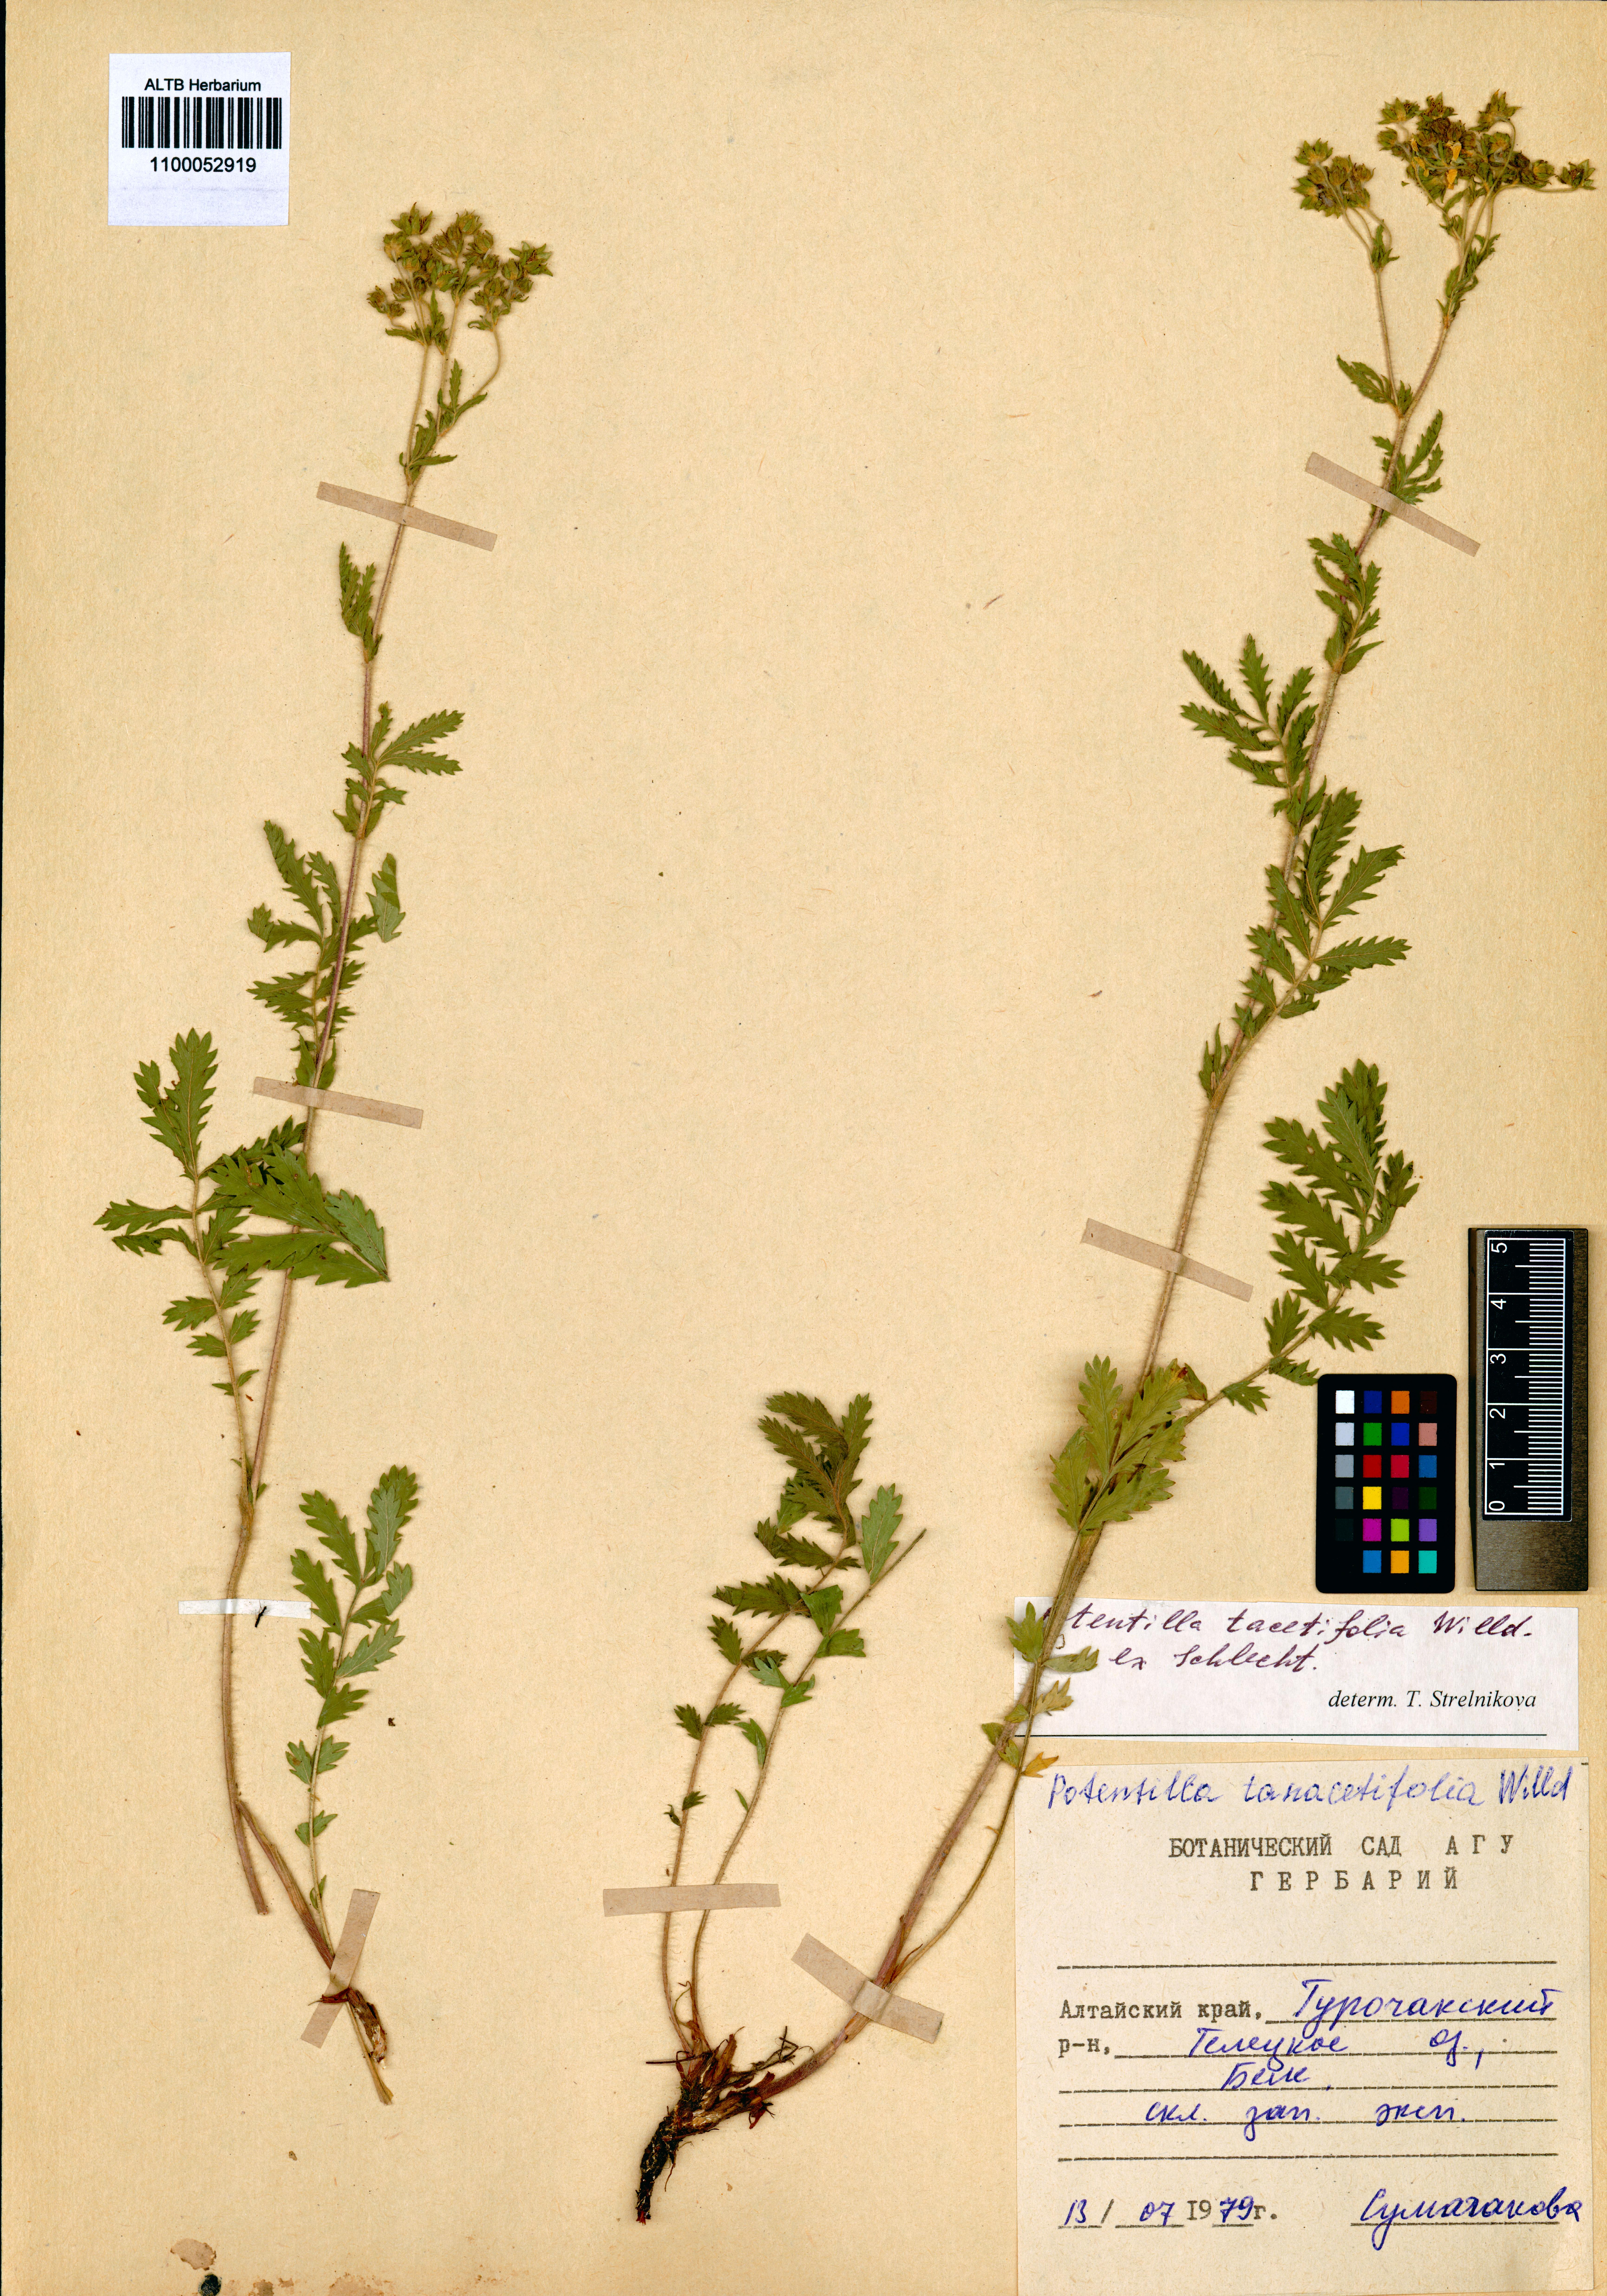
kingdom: Plantae
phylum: Tracheophyta
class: Magnoliopsida
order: Rosales
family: Rosaceae
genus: Potentilla
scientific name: Potentilla tanacetifolia
